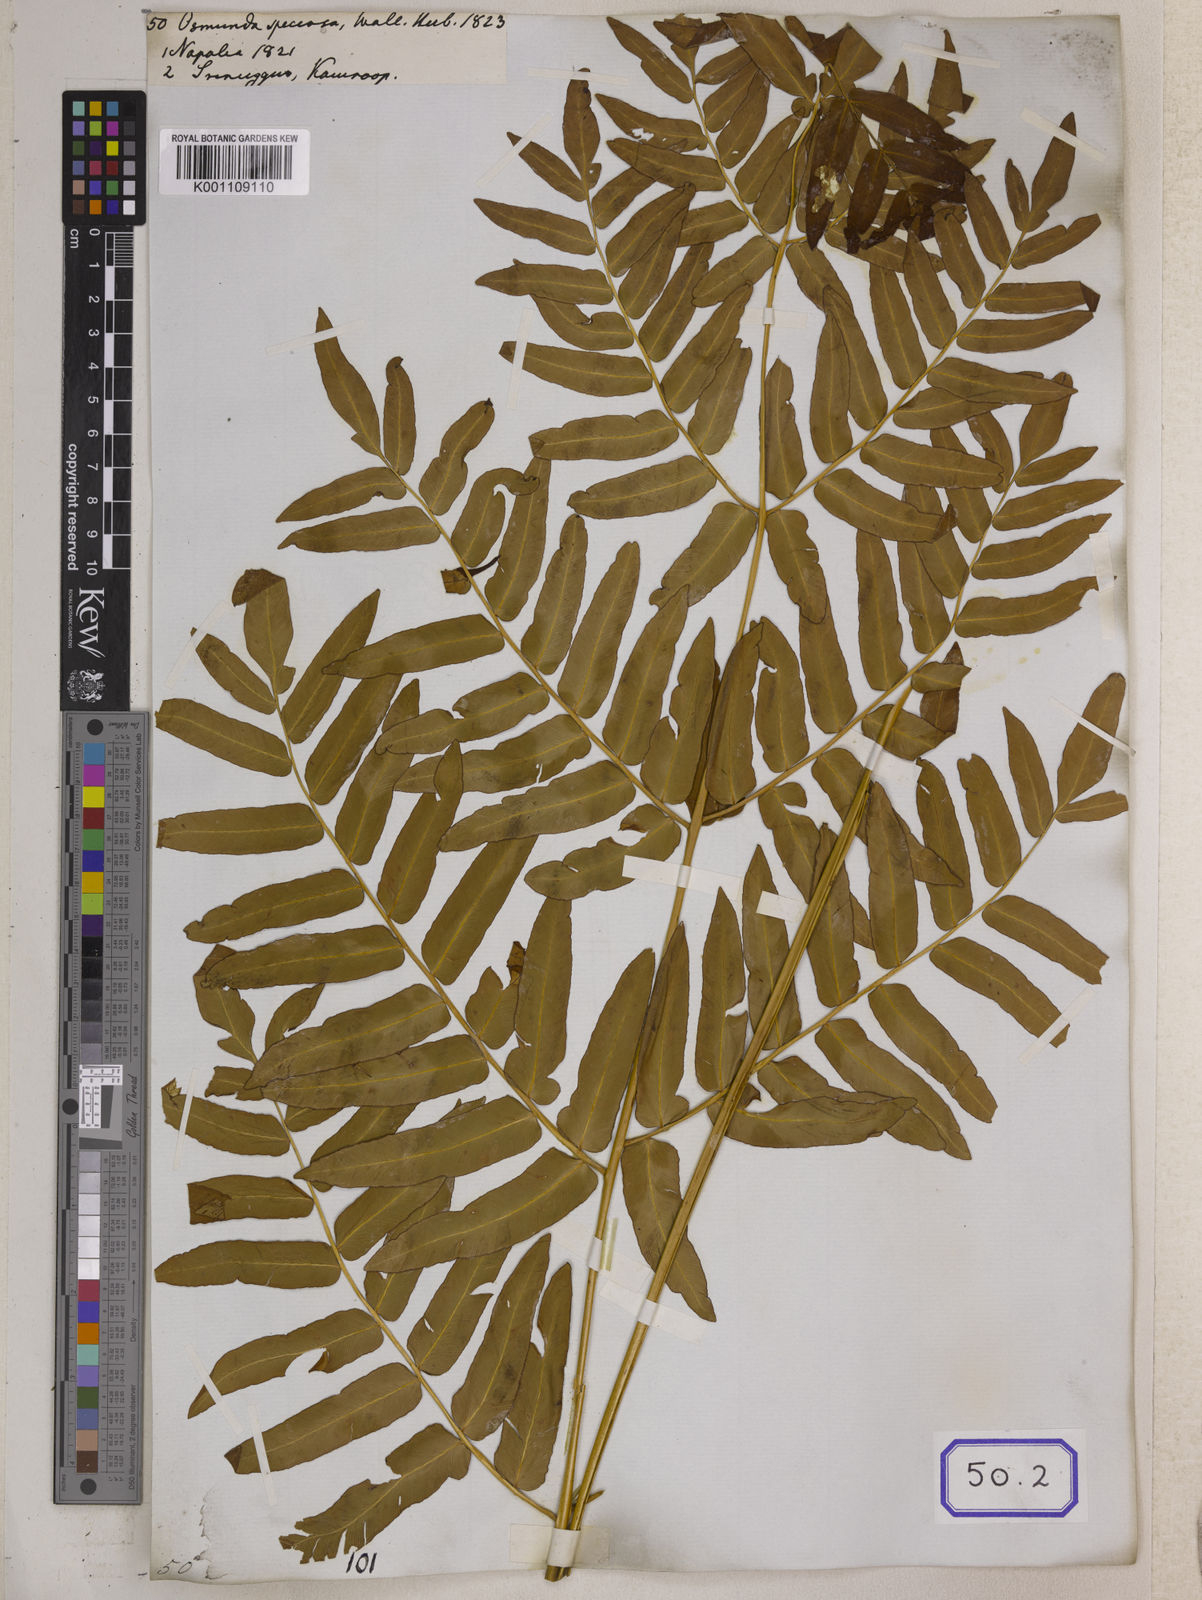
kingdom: Plantae
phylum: Tracheophyta
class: Polypodiopsida
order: Osmundales
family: Osmundaceae
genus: Osmunda
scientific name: Osmunda japonica
